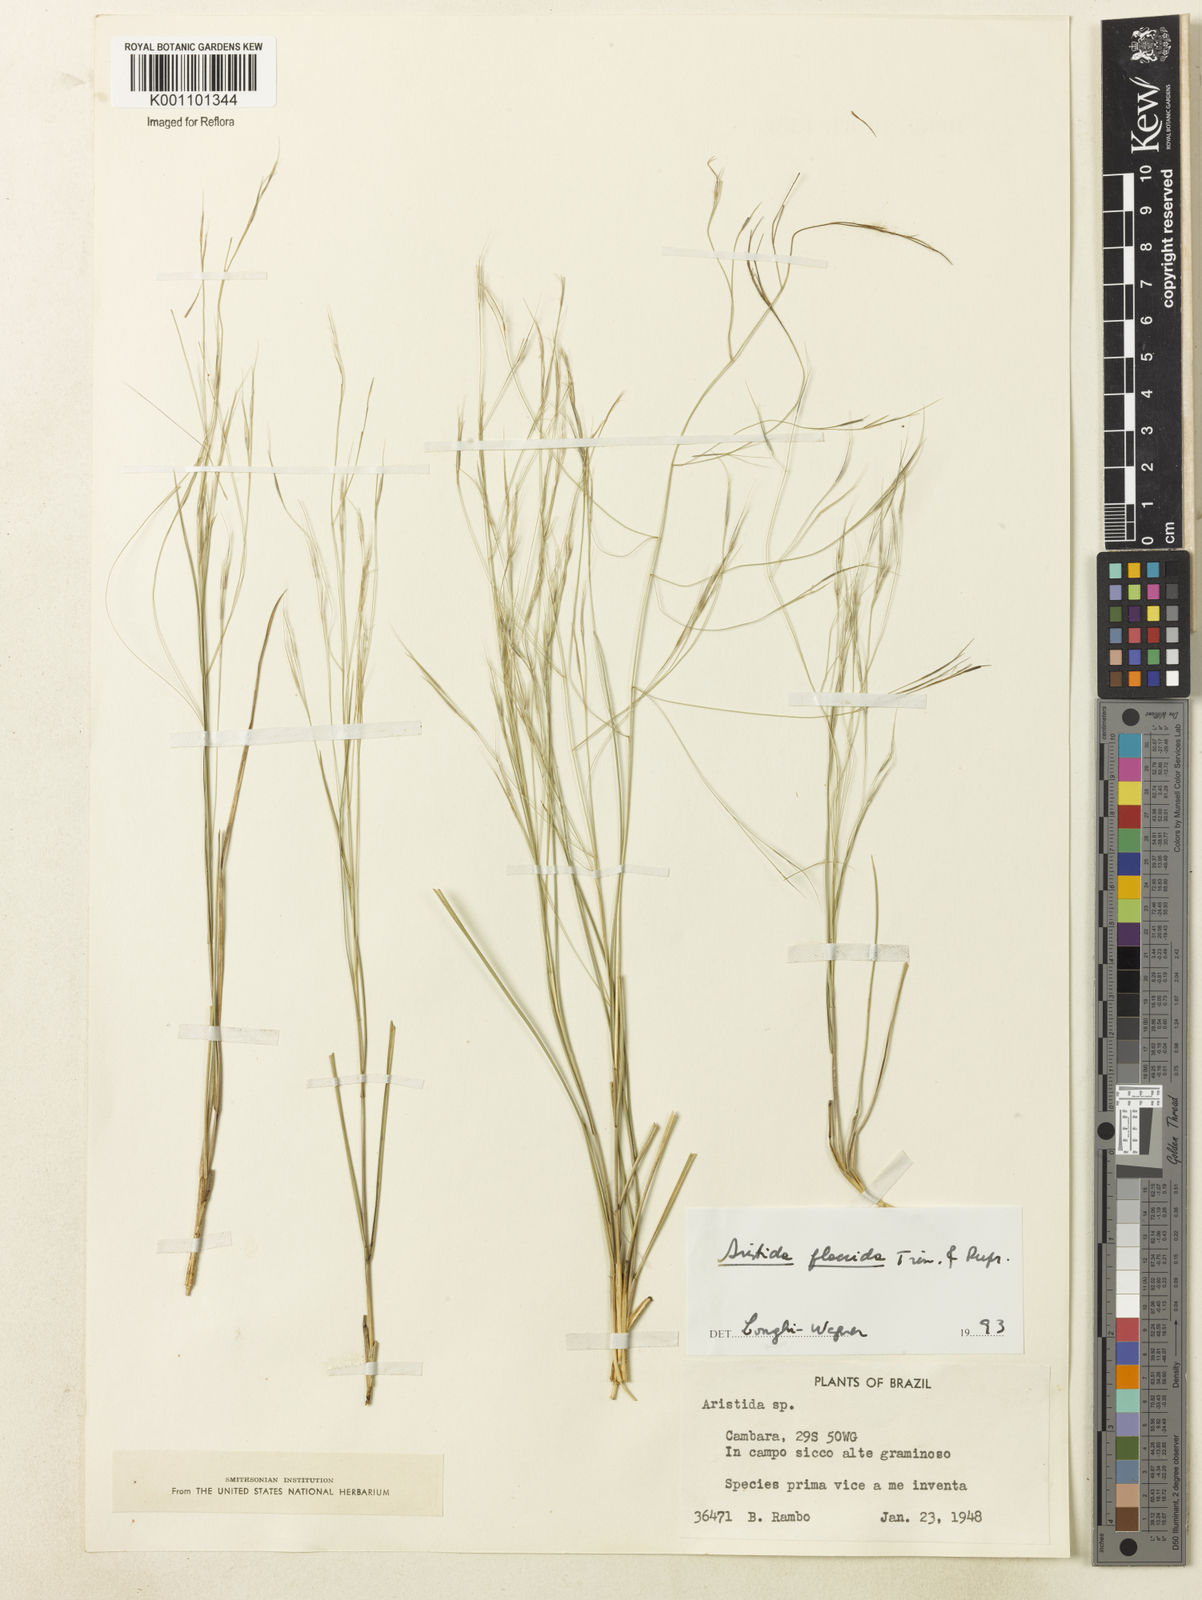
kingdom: Plantae
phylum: Tracheophyta
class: Liliopsida
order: Poales
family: Poaceae
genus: Aristida
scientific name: Aristida flaccida
